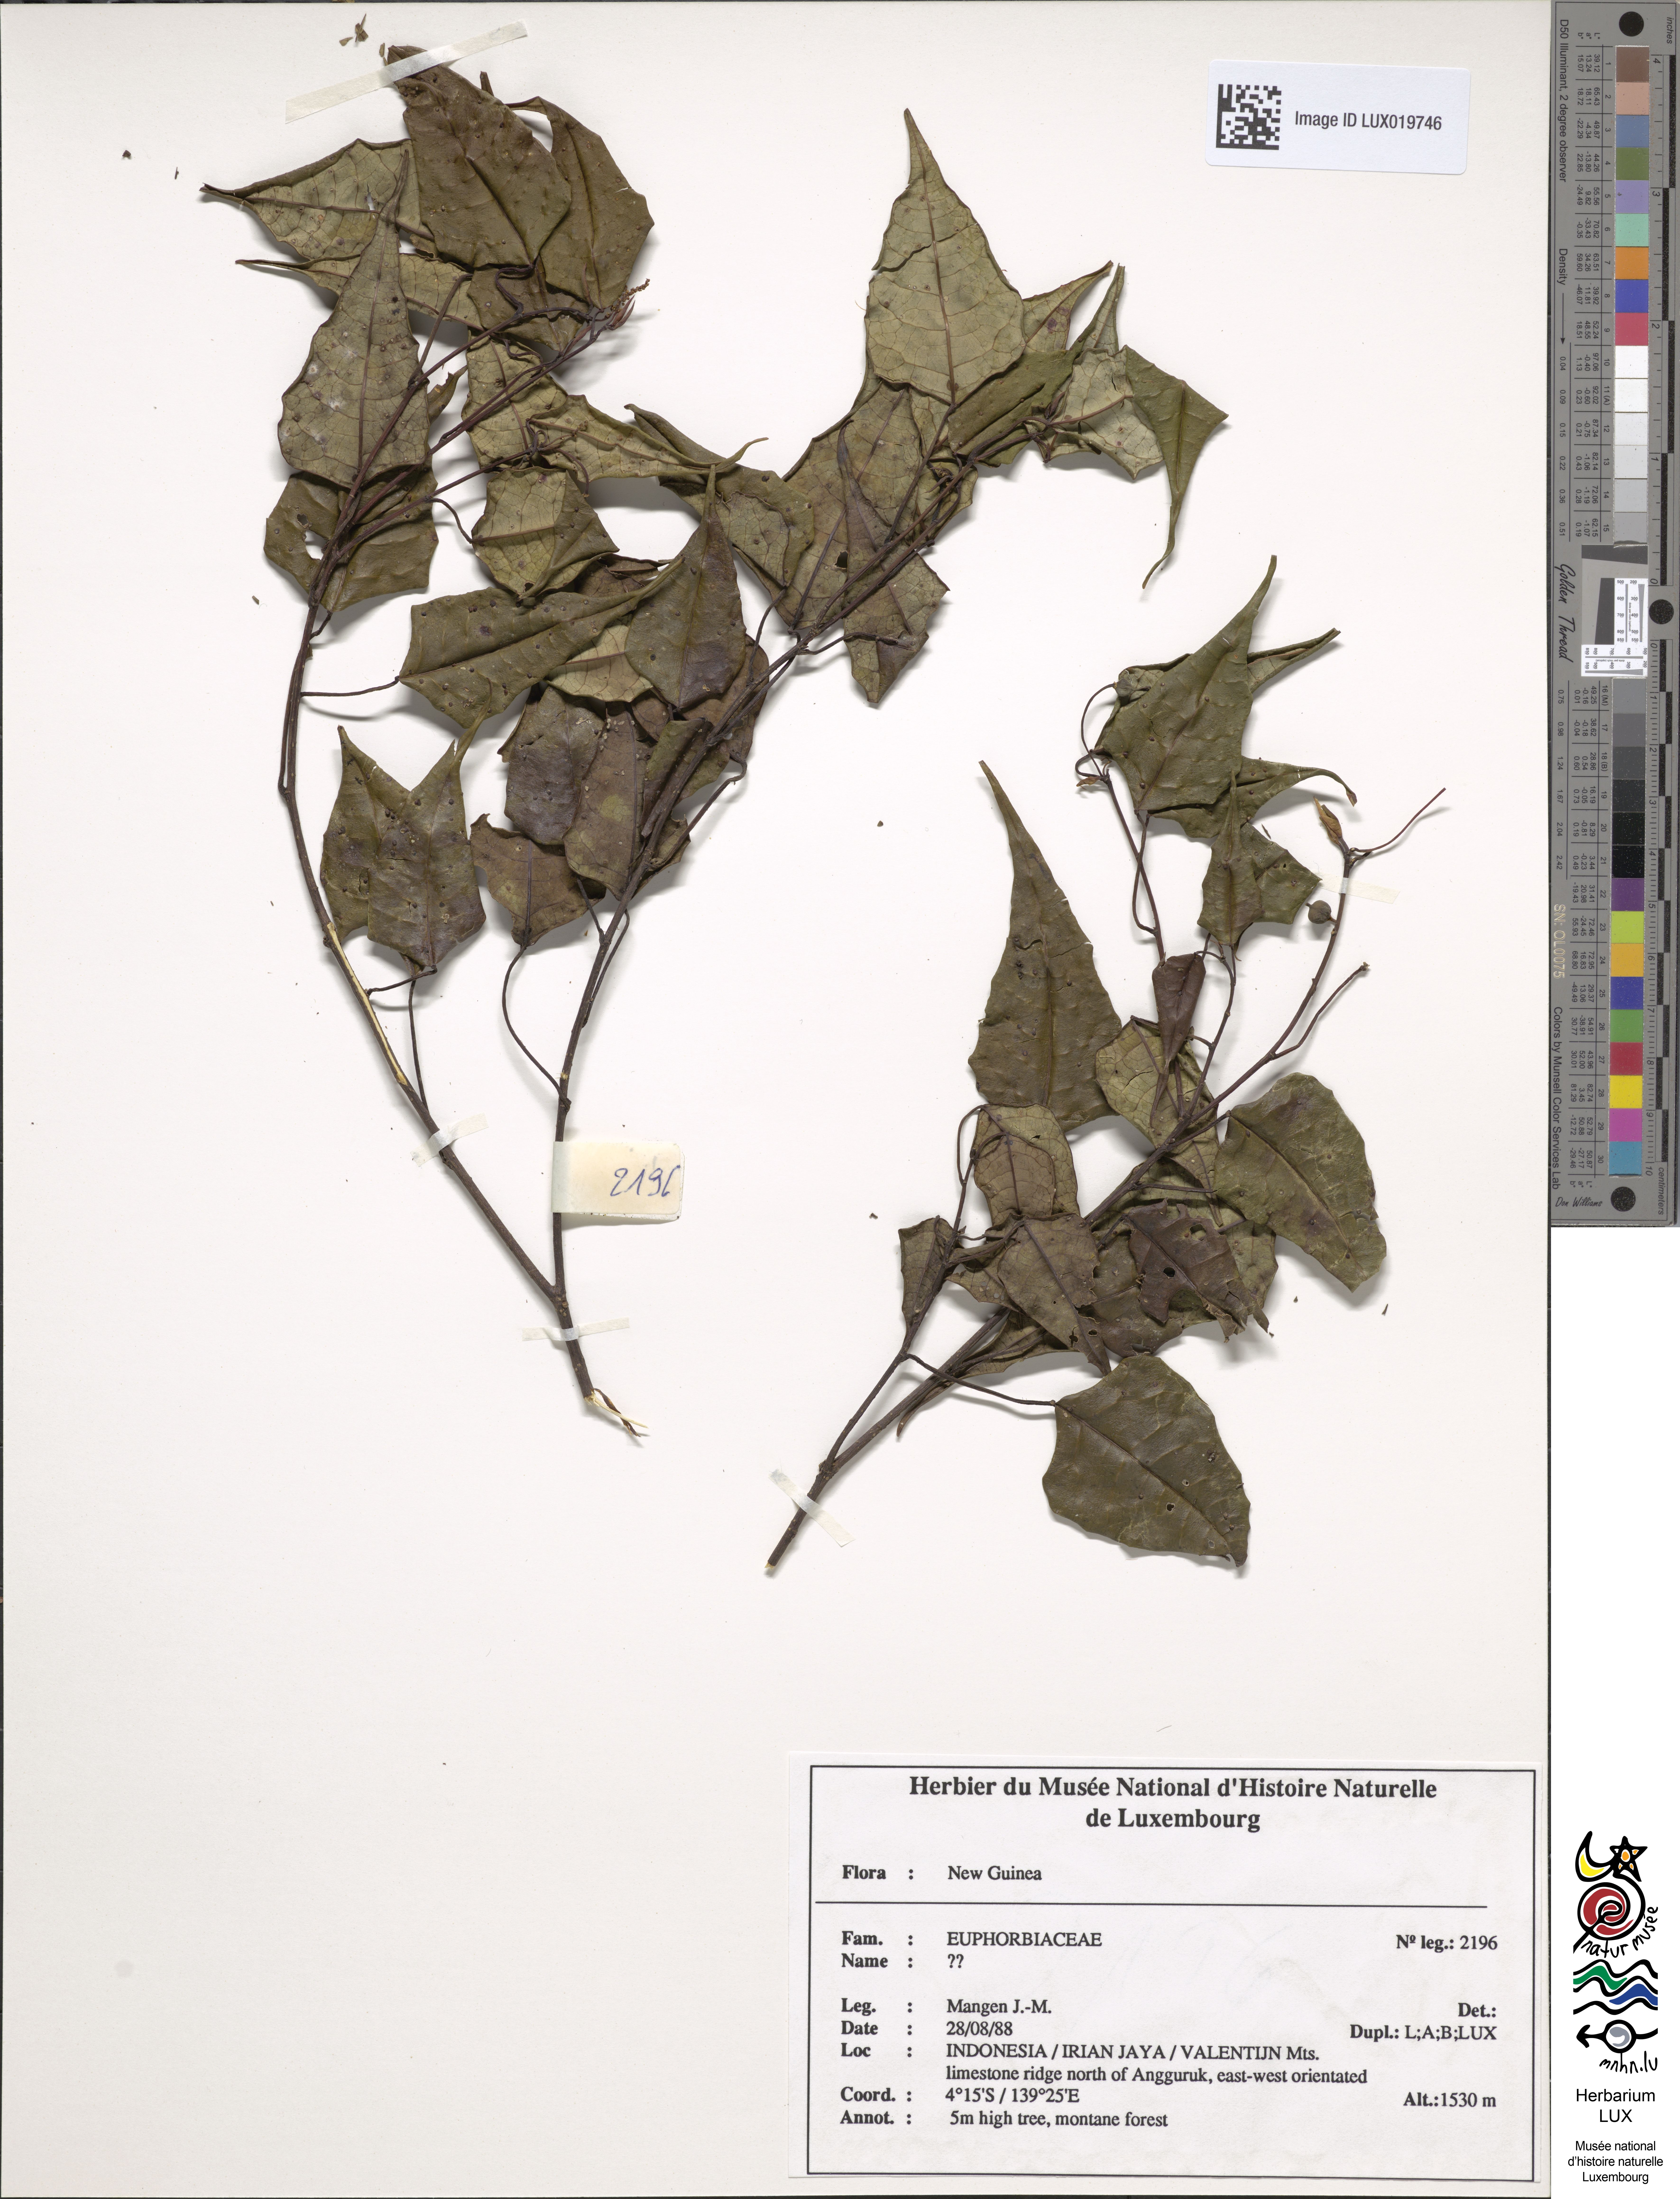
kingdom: Plantae
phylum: Tracheophyta
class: Magnoliopsida
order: Malpighiales
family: Euphorbiaceae
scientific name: Euphorbiaceae
